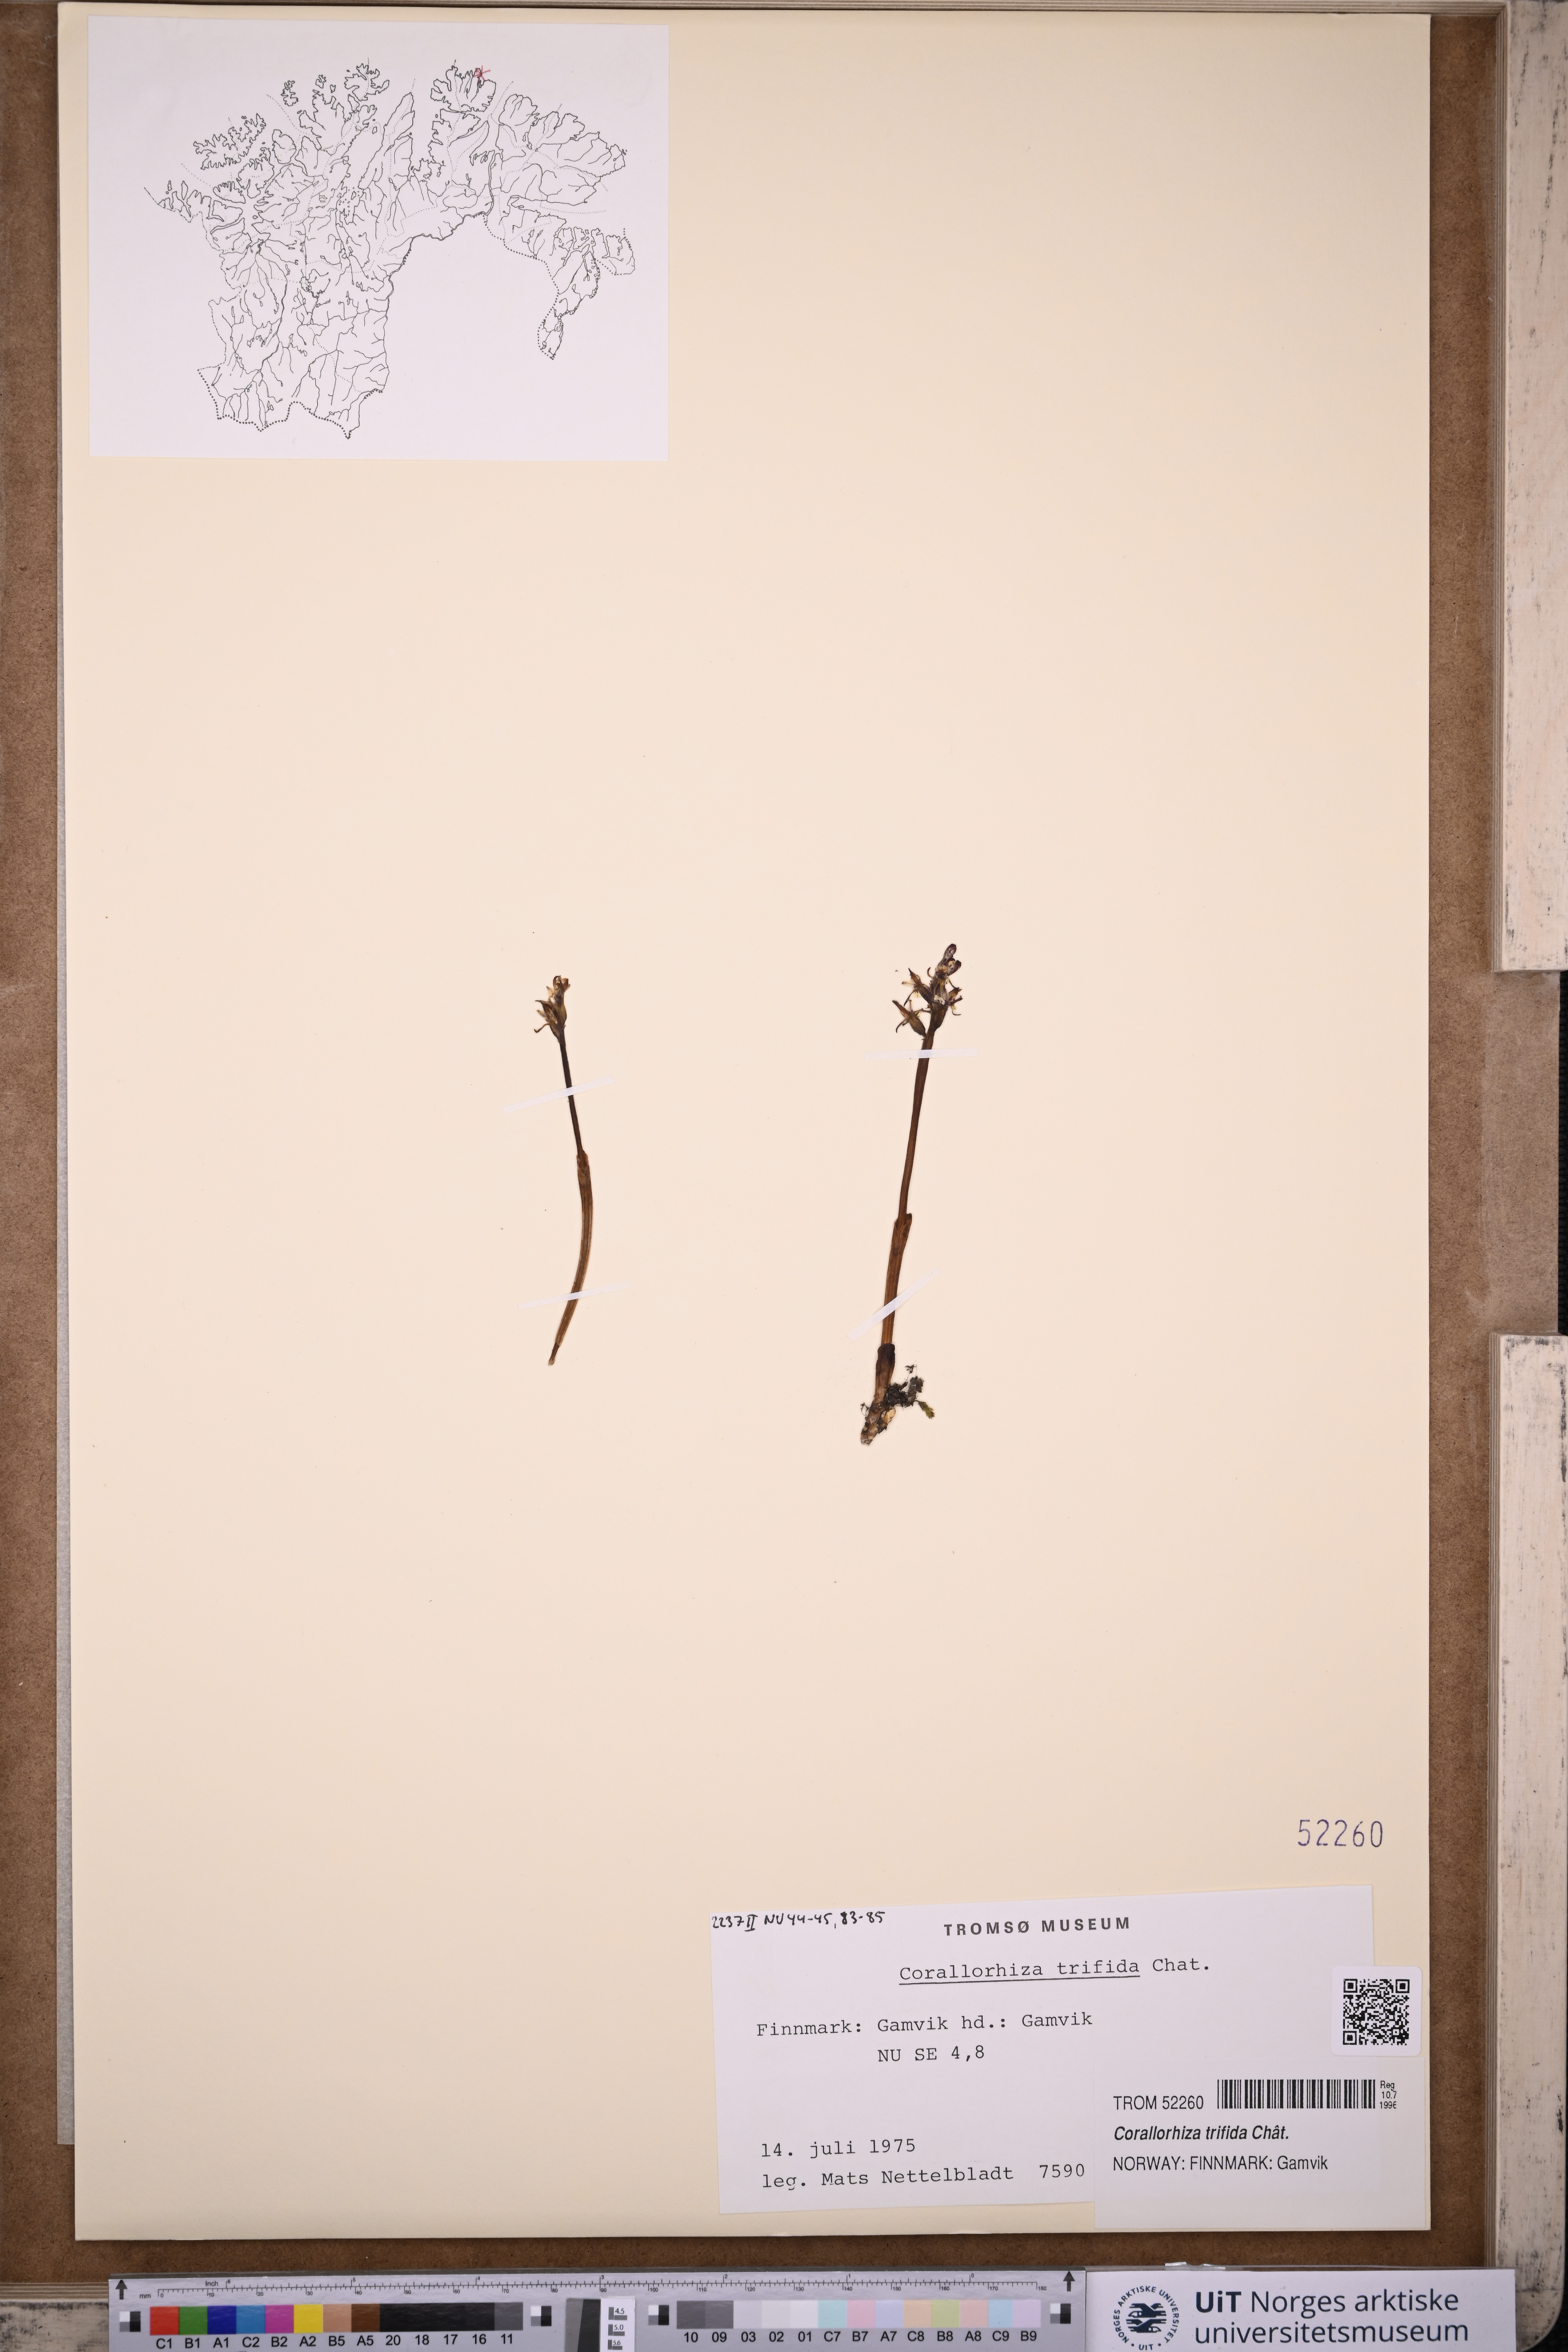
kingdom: Plantae
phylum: Tracheophyta
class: Liliopsida
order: Asparagales
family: Orchidaceae
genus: Corallorhiza
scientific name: Corallorhiza trifida
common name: Yellow coralroot
